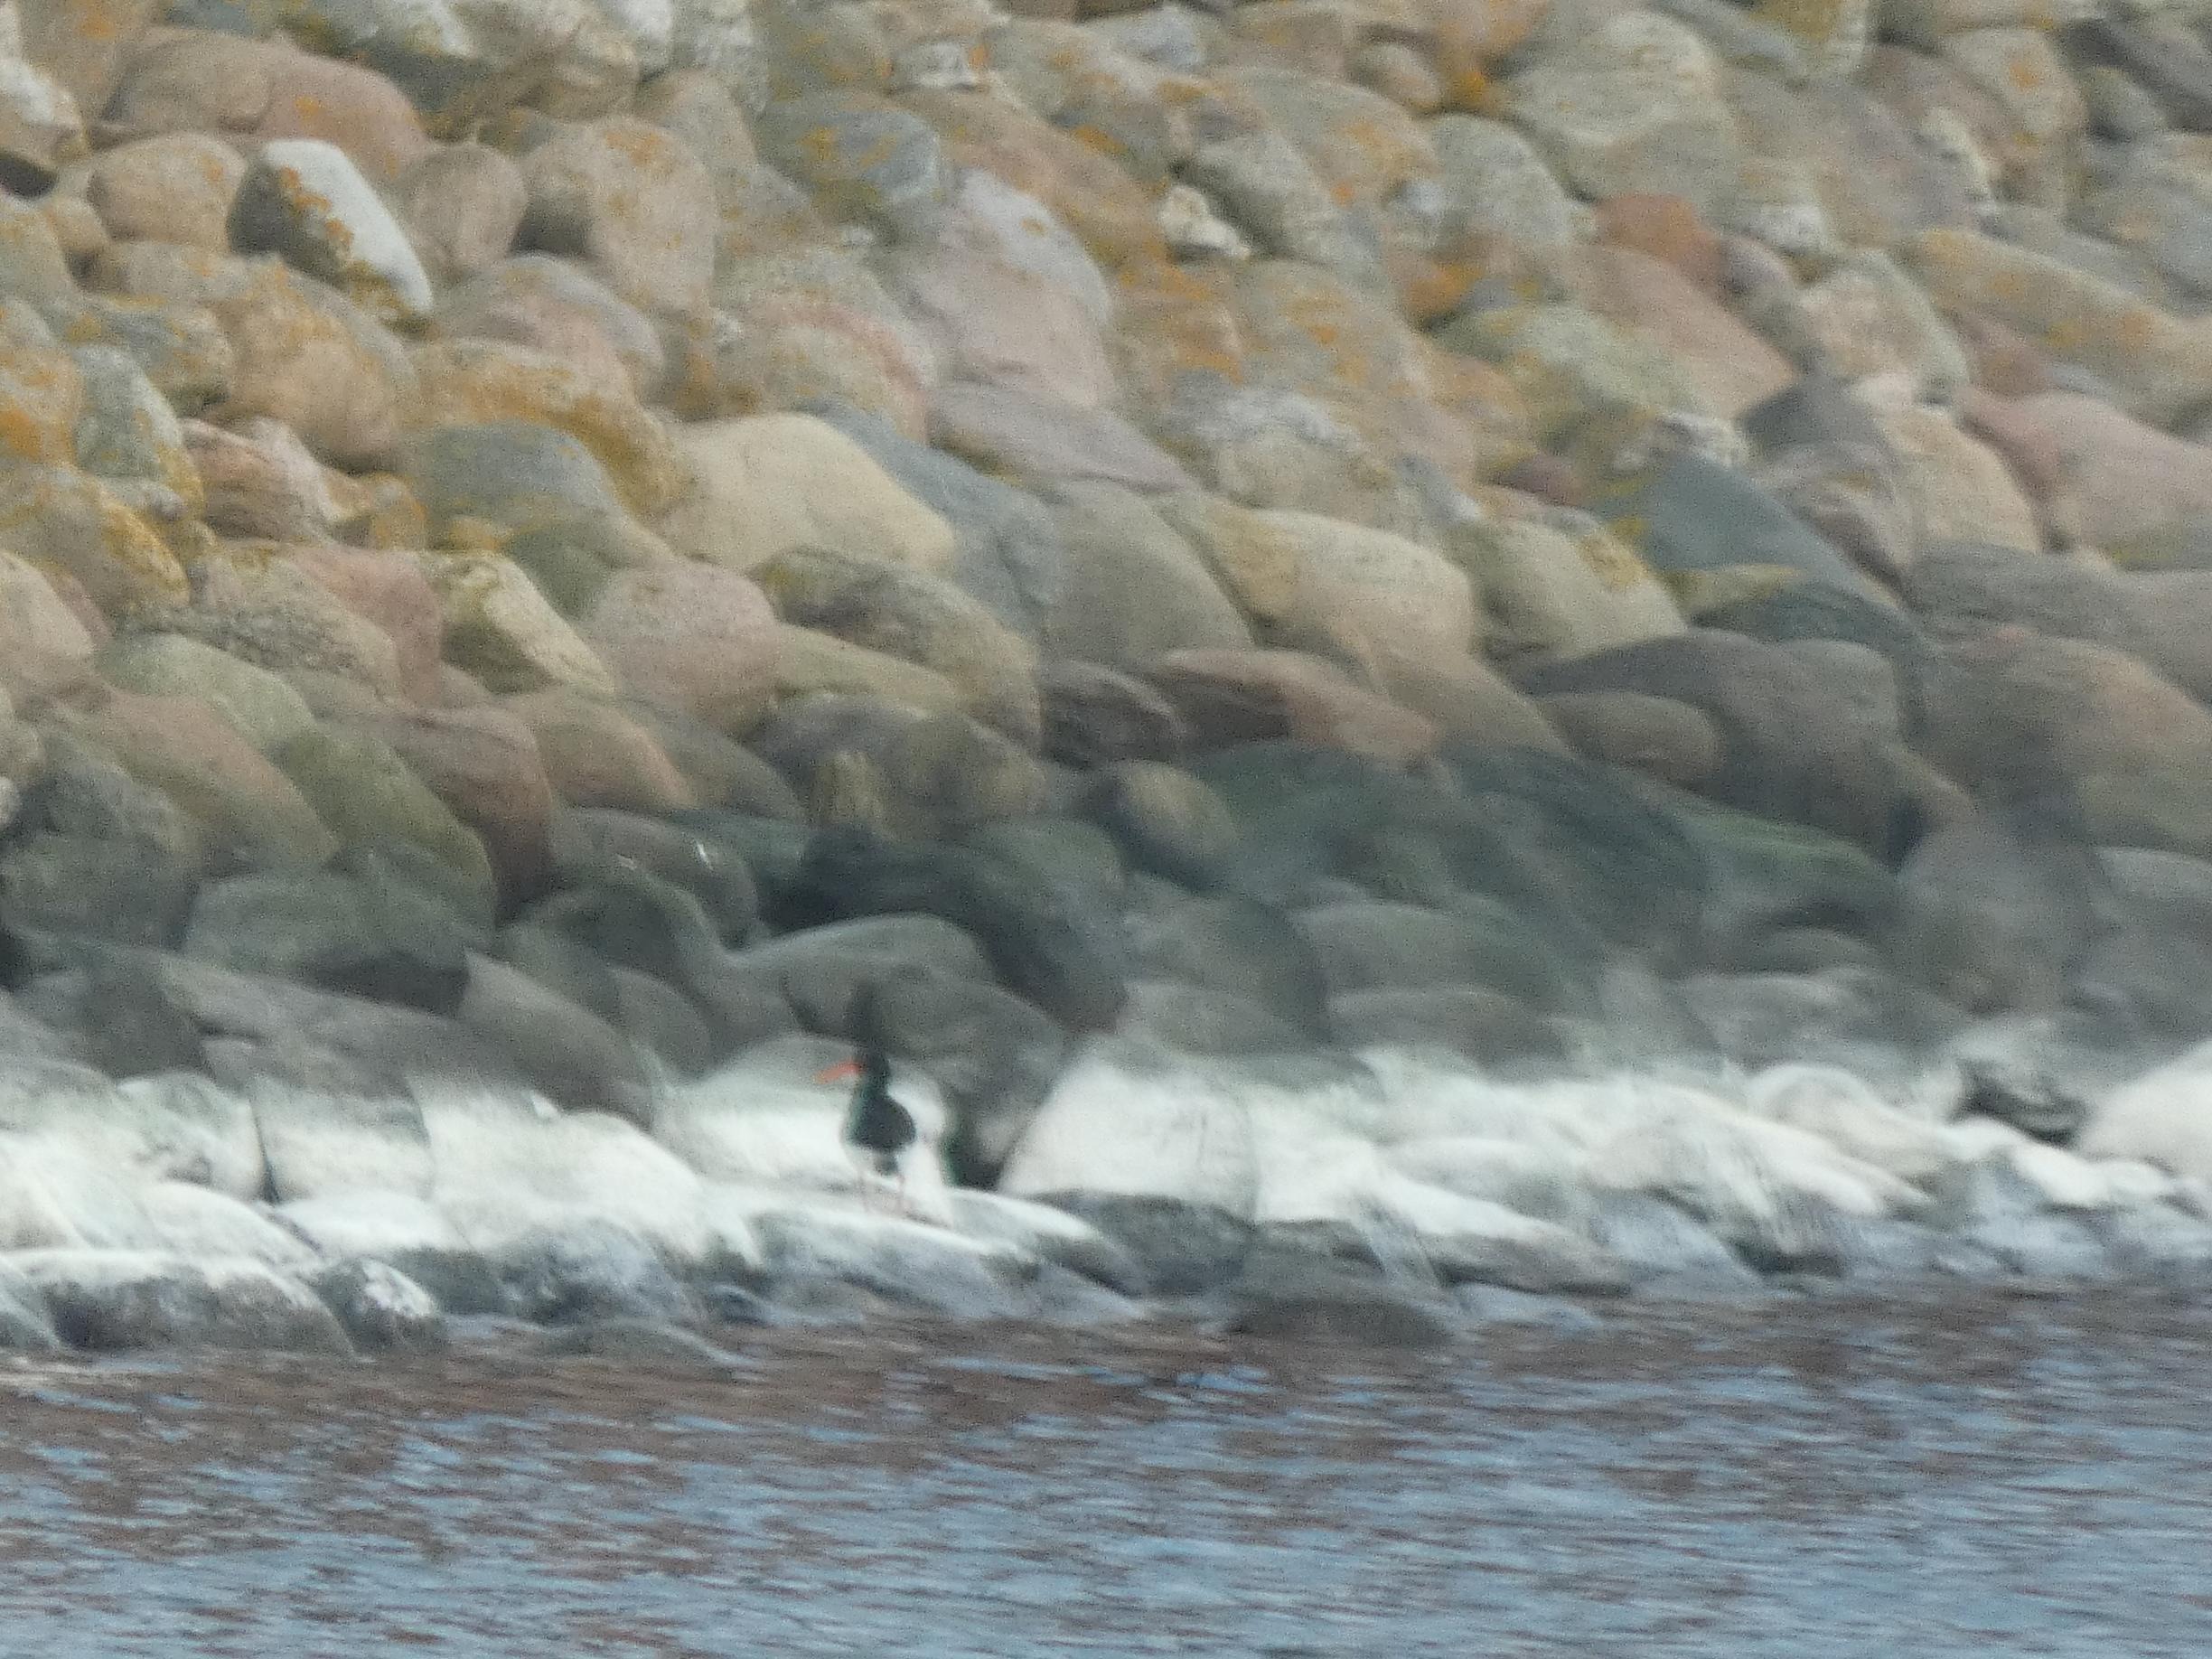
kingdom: Animalia
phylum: Chordata
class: Aves
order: Charadriiformes
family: Haematopodidae
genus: Haematopus
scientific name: Haematopus ostralegus
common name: Strandskade
